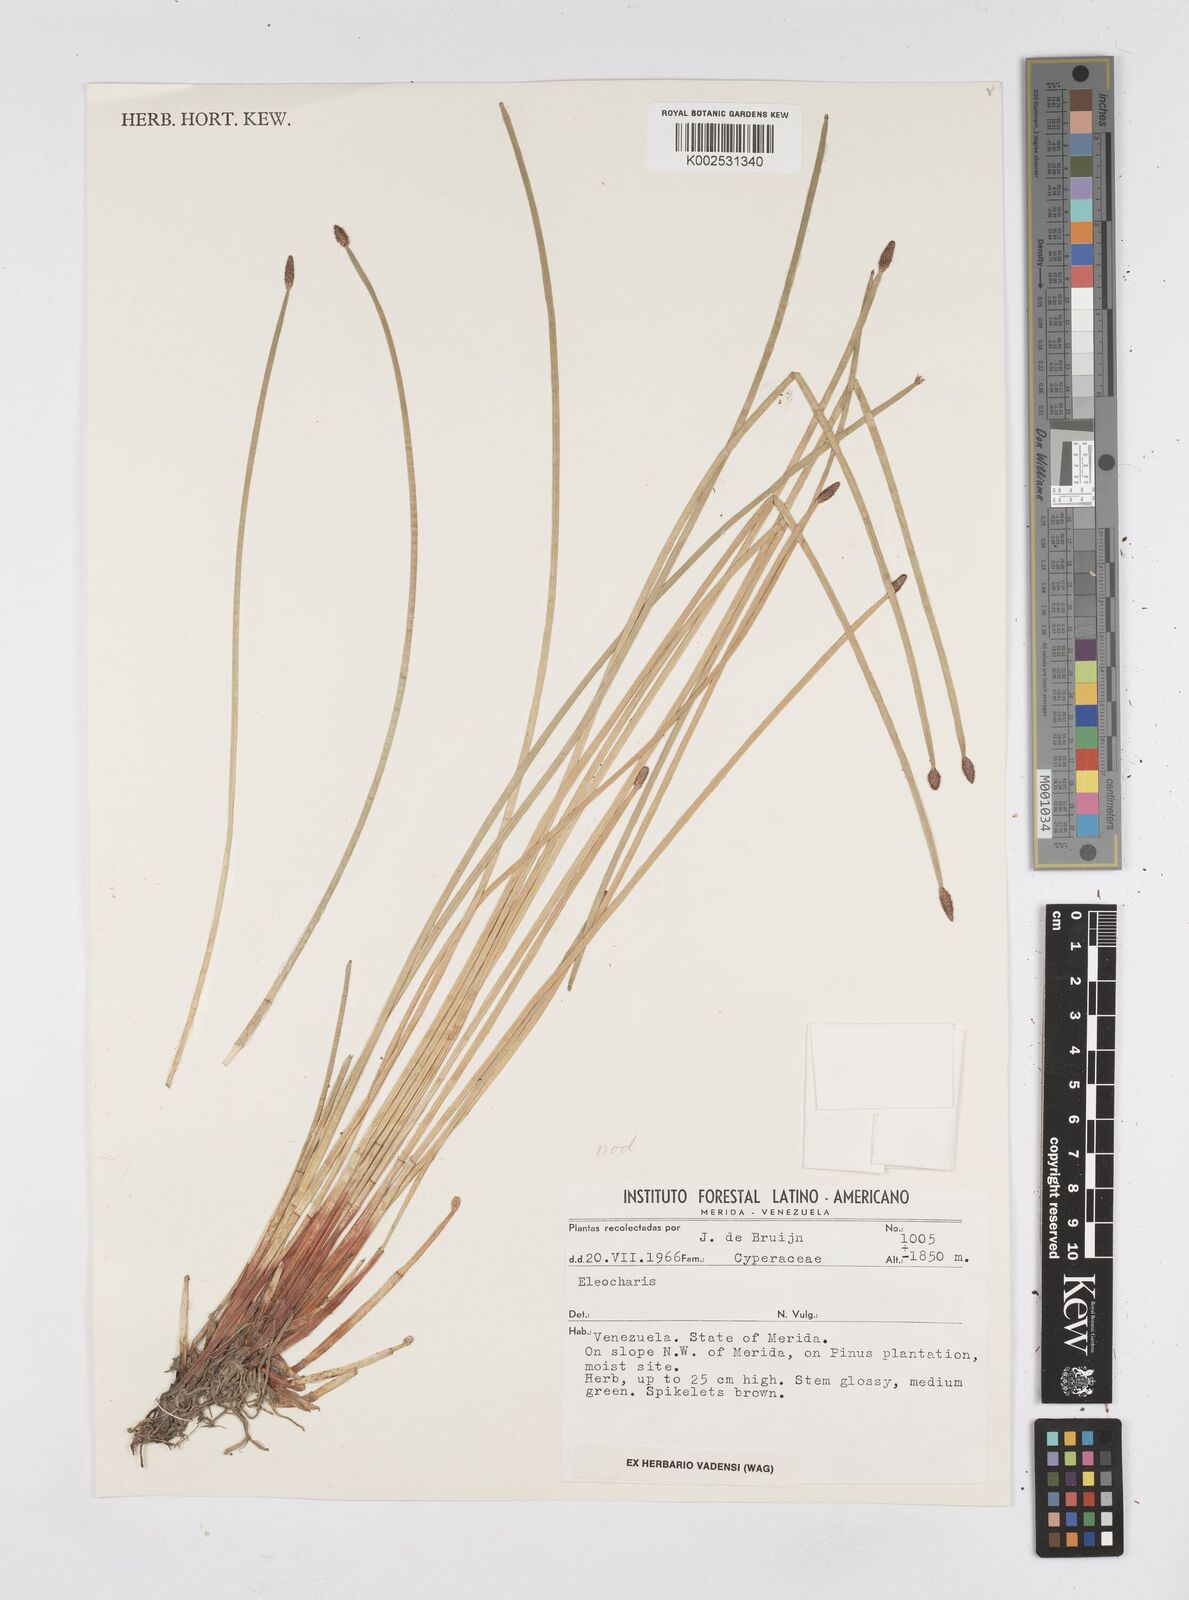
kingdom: Plantae
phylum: Tracheophyta
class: Liliopsida
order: Poales
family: Cyperaceae
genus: Eleocharis
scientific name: Eleocharis
